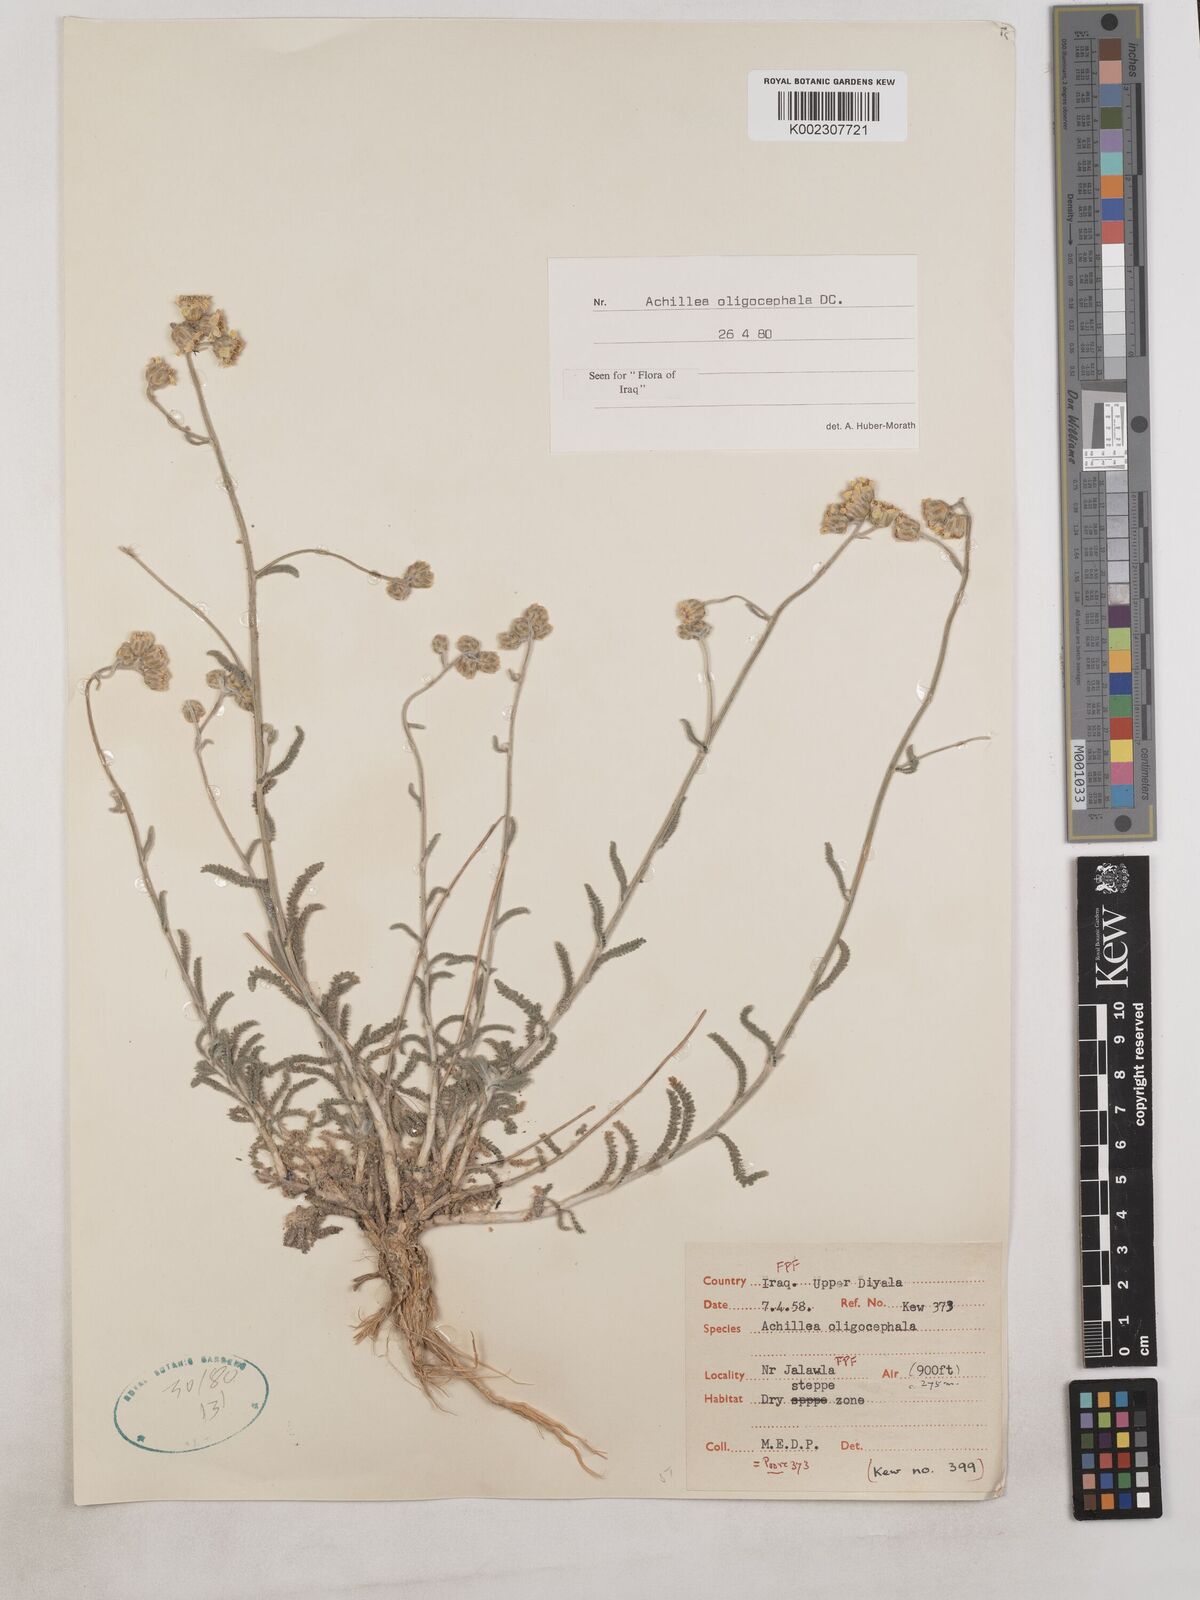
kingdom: Plantae
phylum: Tracheophyta
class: Magnoliopsida
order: Asterales
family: Asteraceae
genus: Achillea
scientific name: Achillea oligocephala
